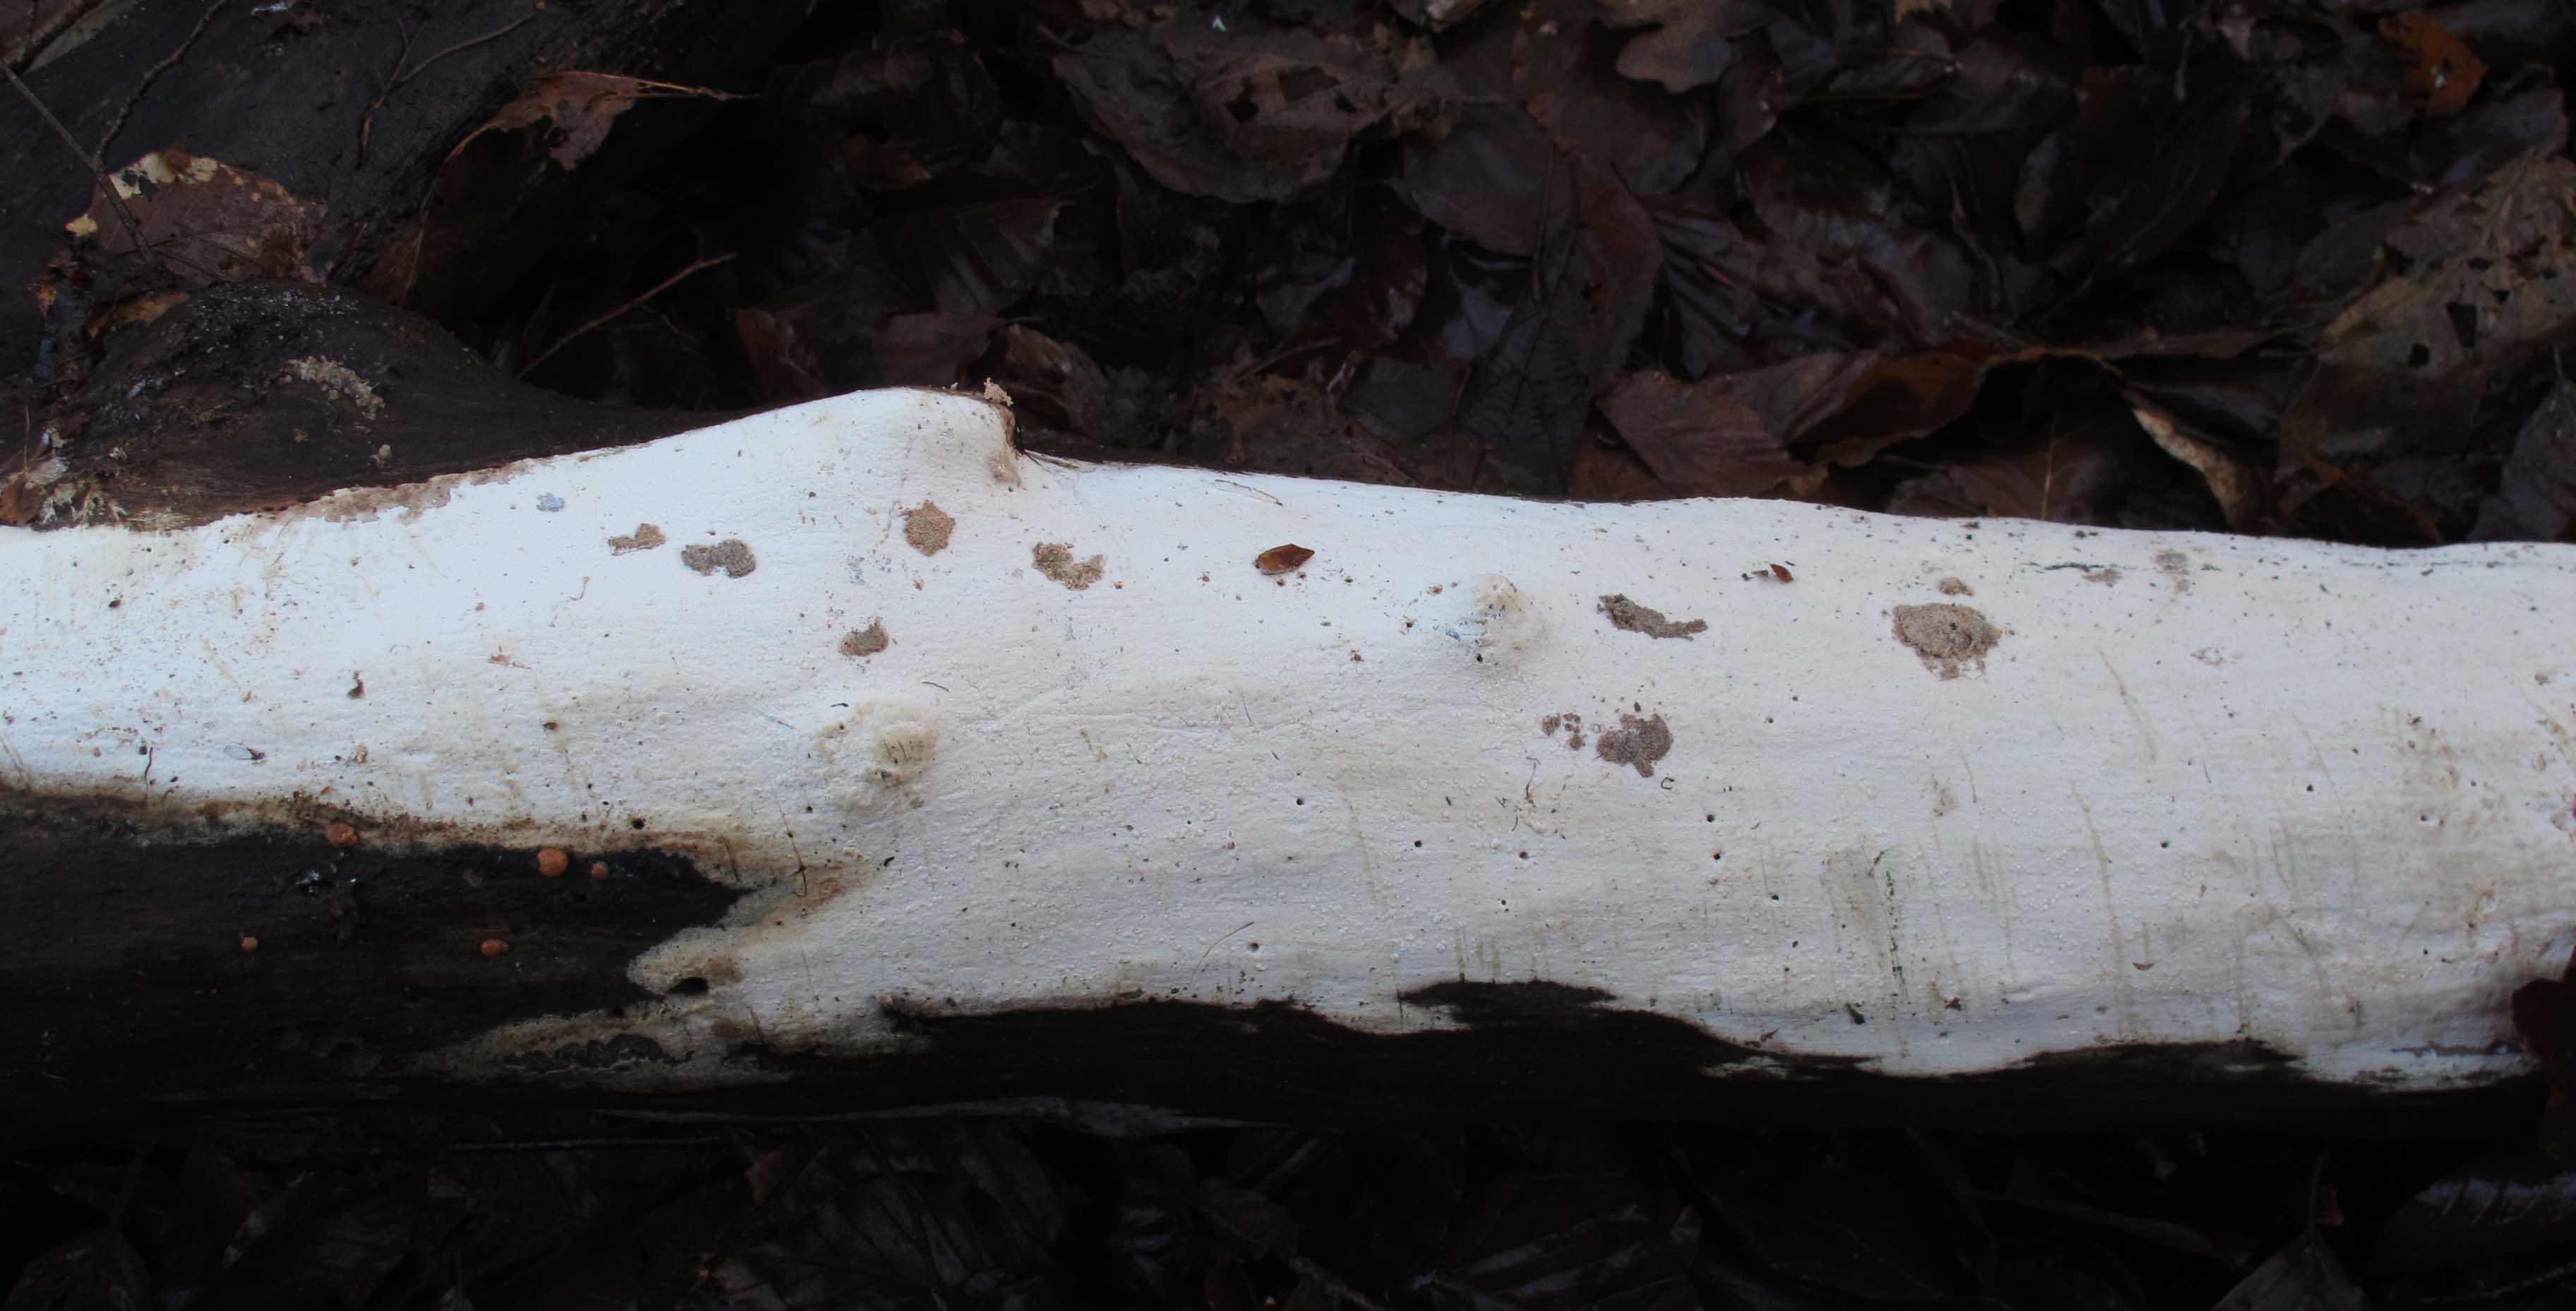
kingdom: Fungi
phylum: Basidiomycota
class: Agaricomycetes
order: Russulales
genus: Gloeohypochnicium
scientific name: Gloeohypochnicium analogum
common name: frugt-kalkskind
